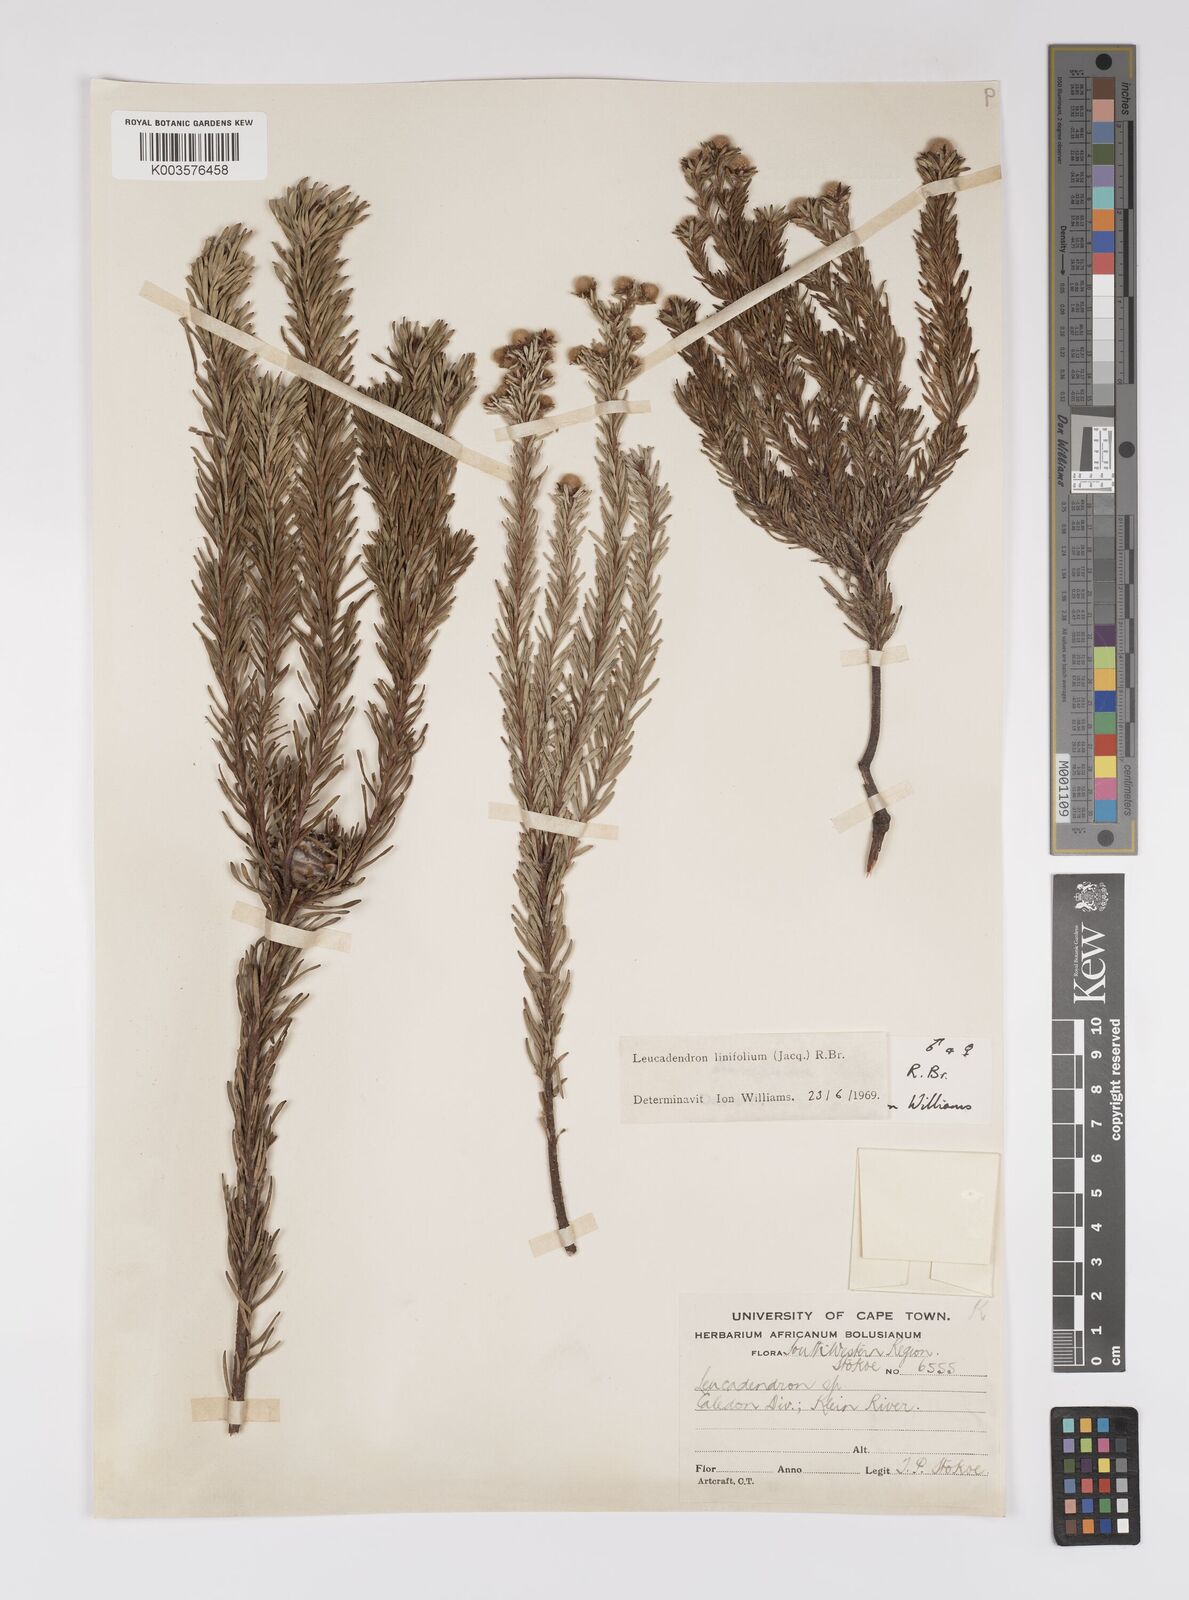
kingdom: Plantae
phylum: Tracheophyta
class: Magnoliopsida
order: Proteales
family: Proteaceae
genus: Leucadendron
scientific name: Leucadendron linifolium
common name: Line-leaf conebush
